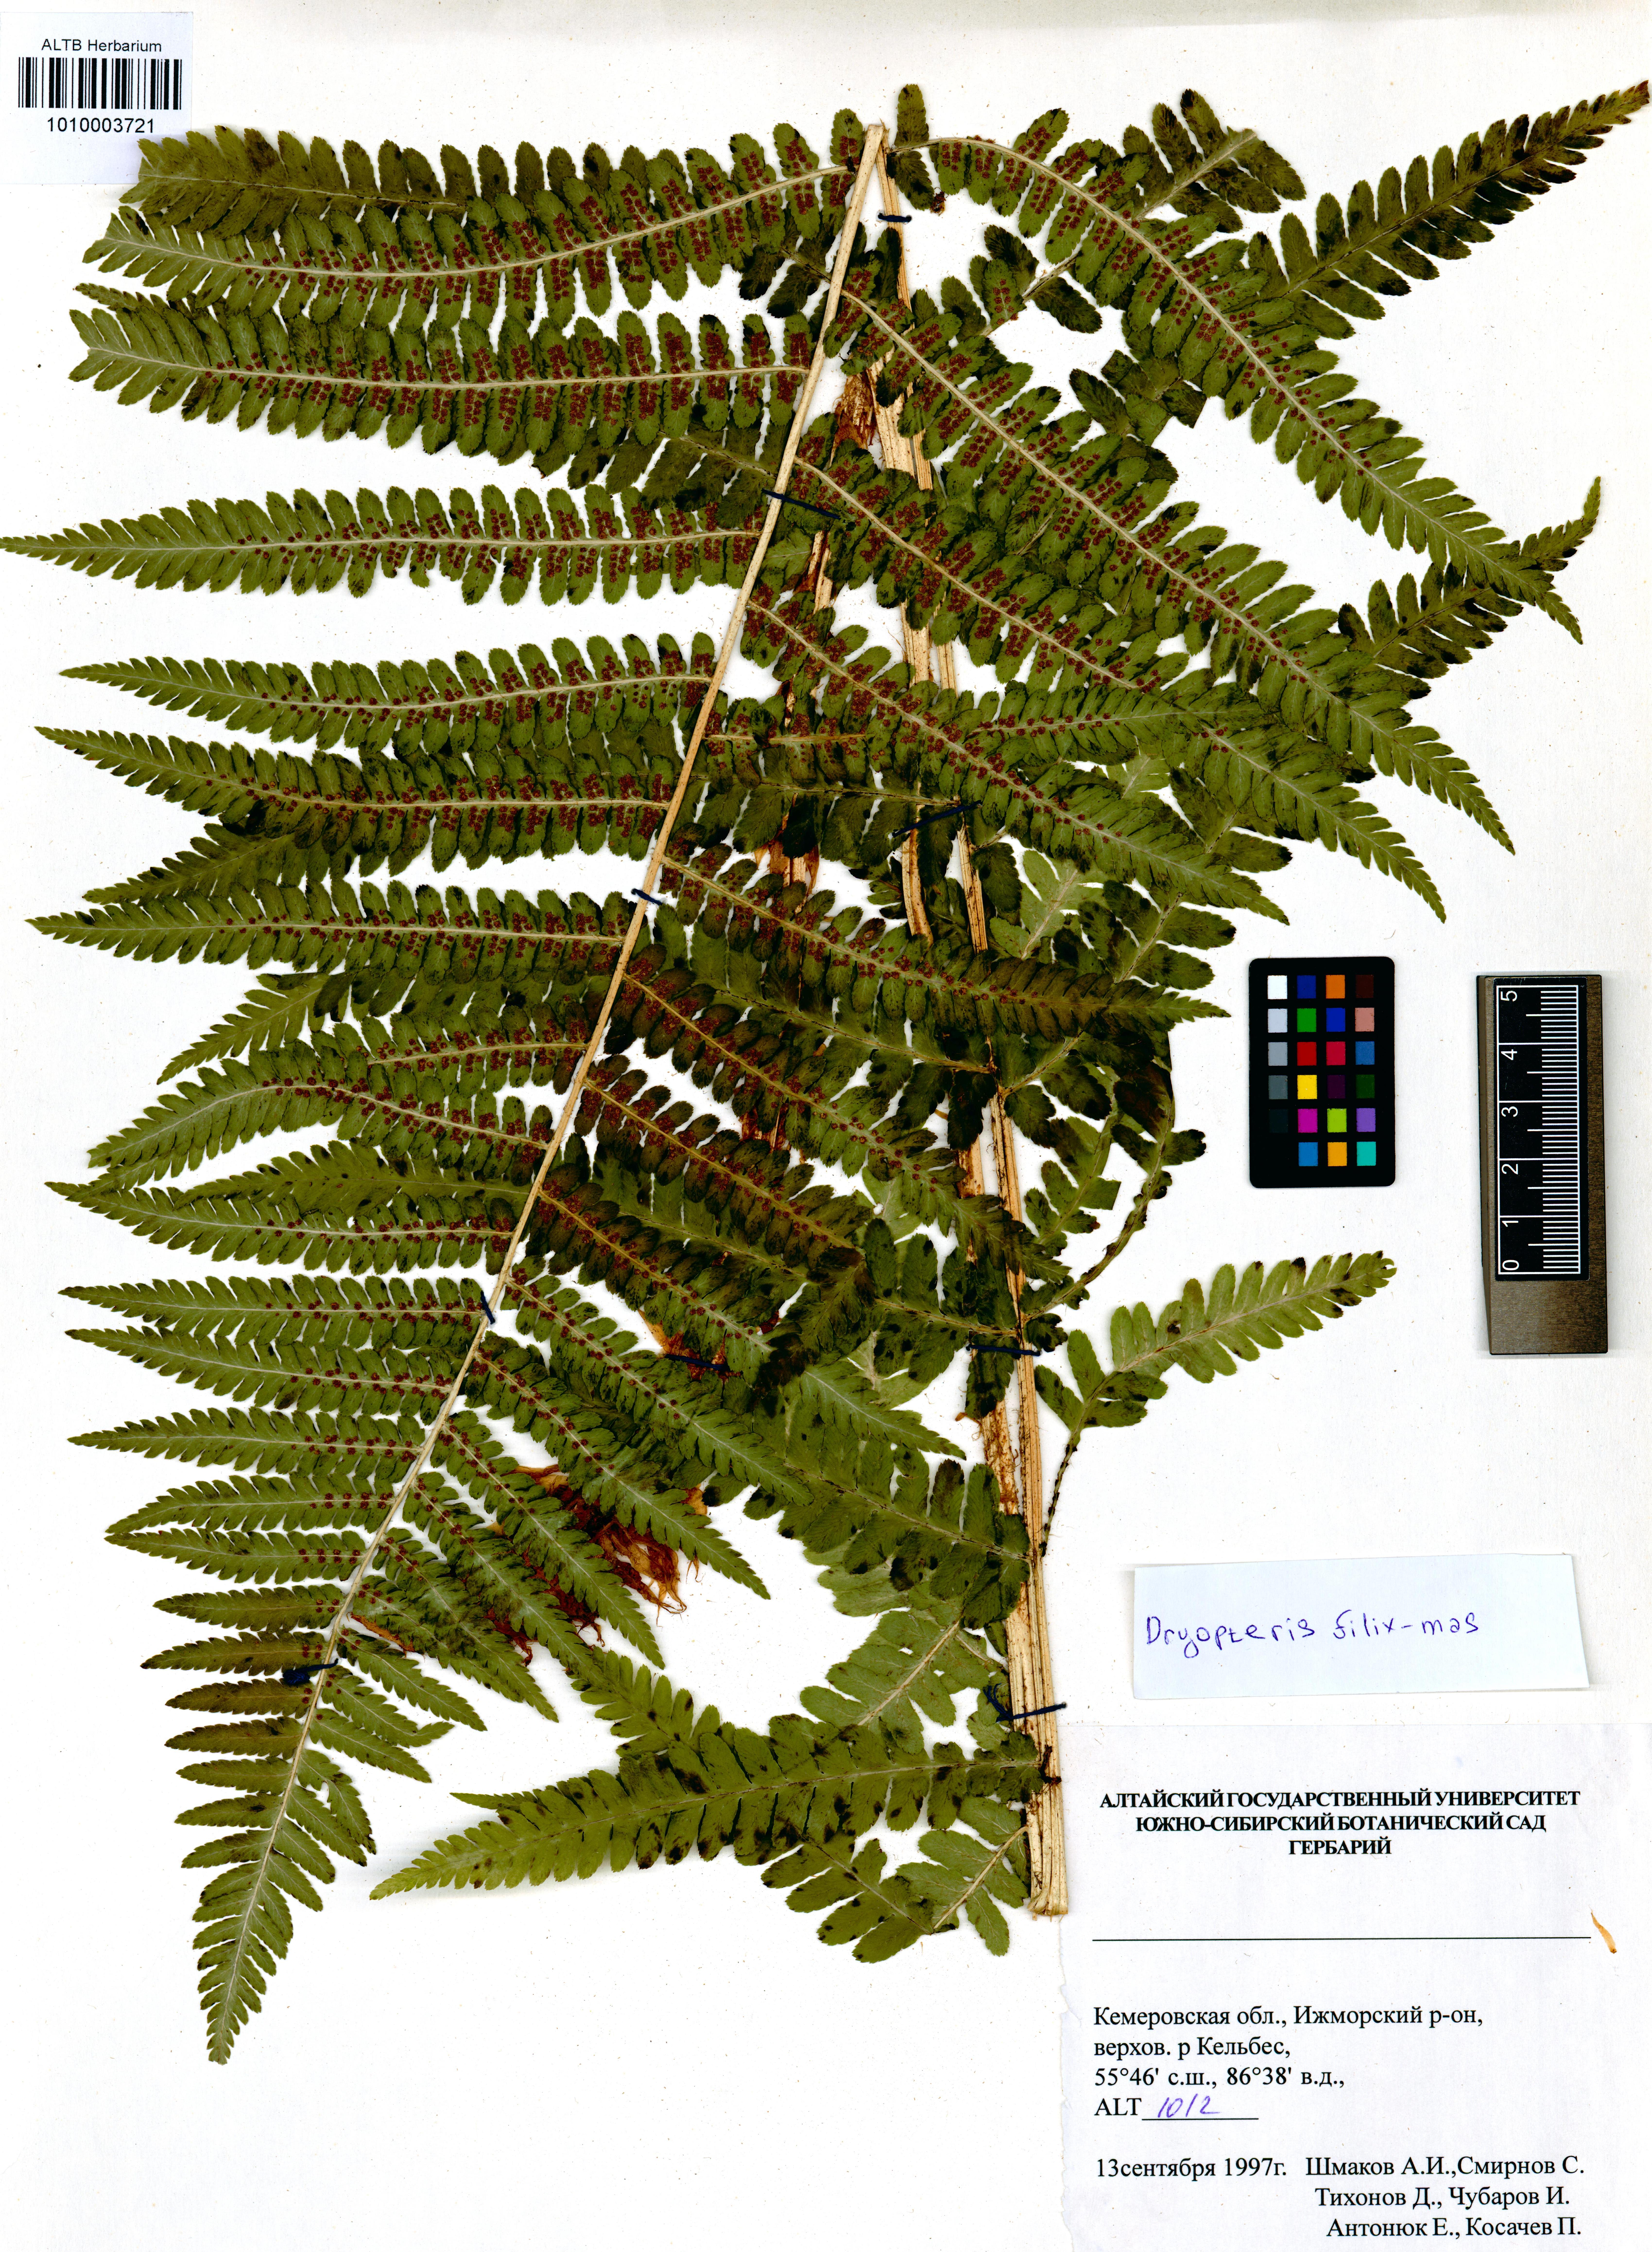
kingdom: Plantae
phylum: Tracheophyta
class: Polypodiopsida
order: Polypodiales
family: Dryopteridaceae
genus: Dryopteris
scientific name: Dryopteris filix-mas
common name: Male fern
